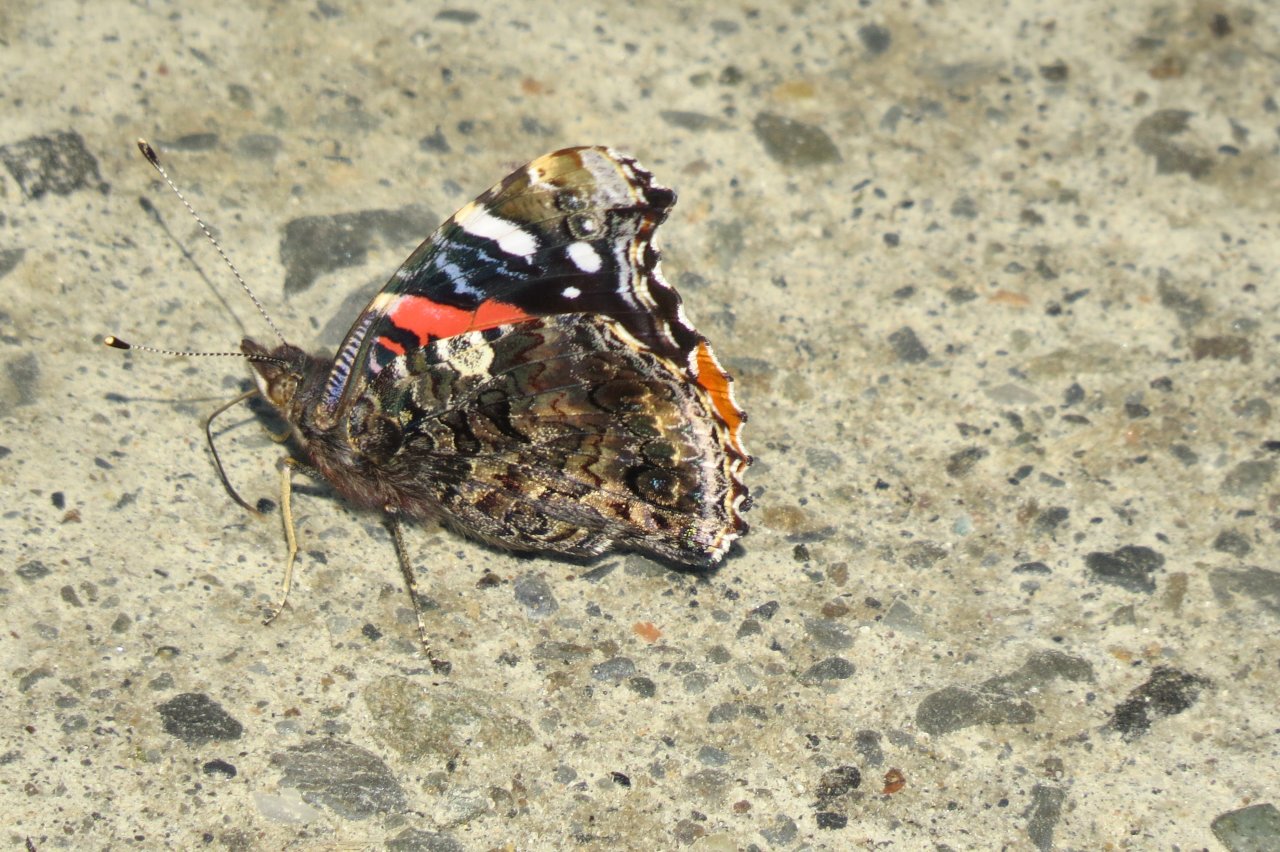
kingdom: Animalia
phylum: Arthropoda
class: Insecta
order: Lepidoptera
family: Nymphalidae
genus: Vanessa
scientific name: Vanessa atalanta
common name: Red Admiral
